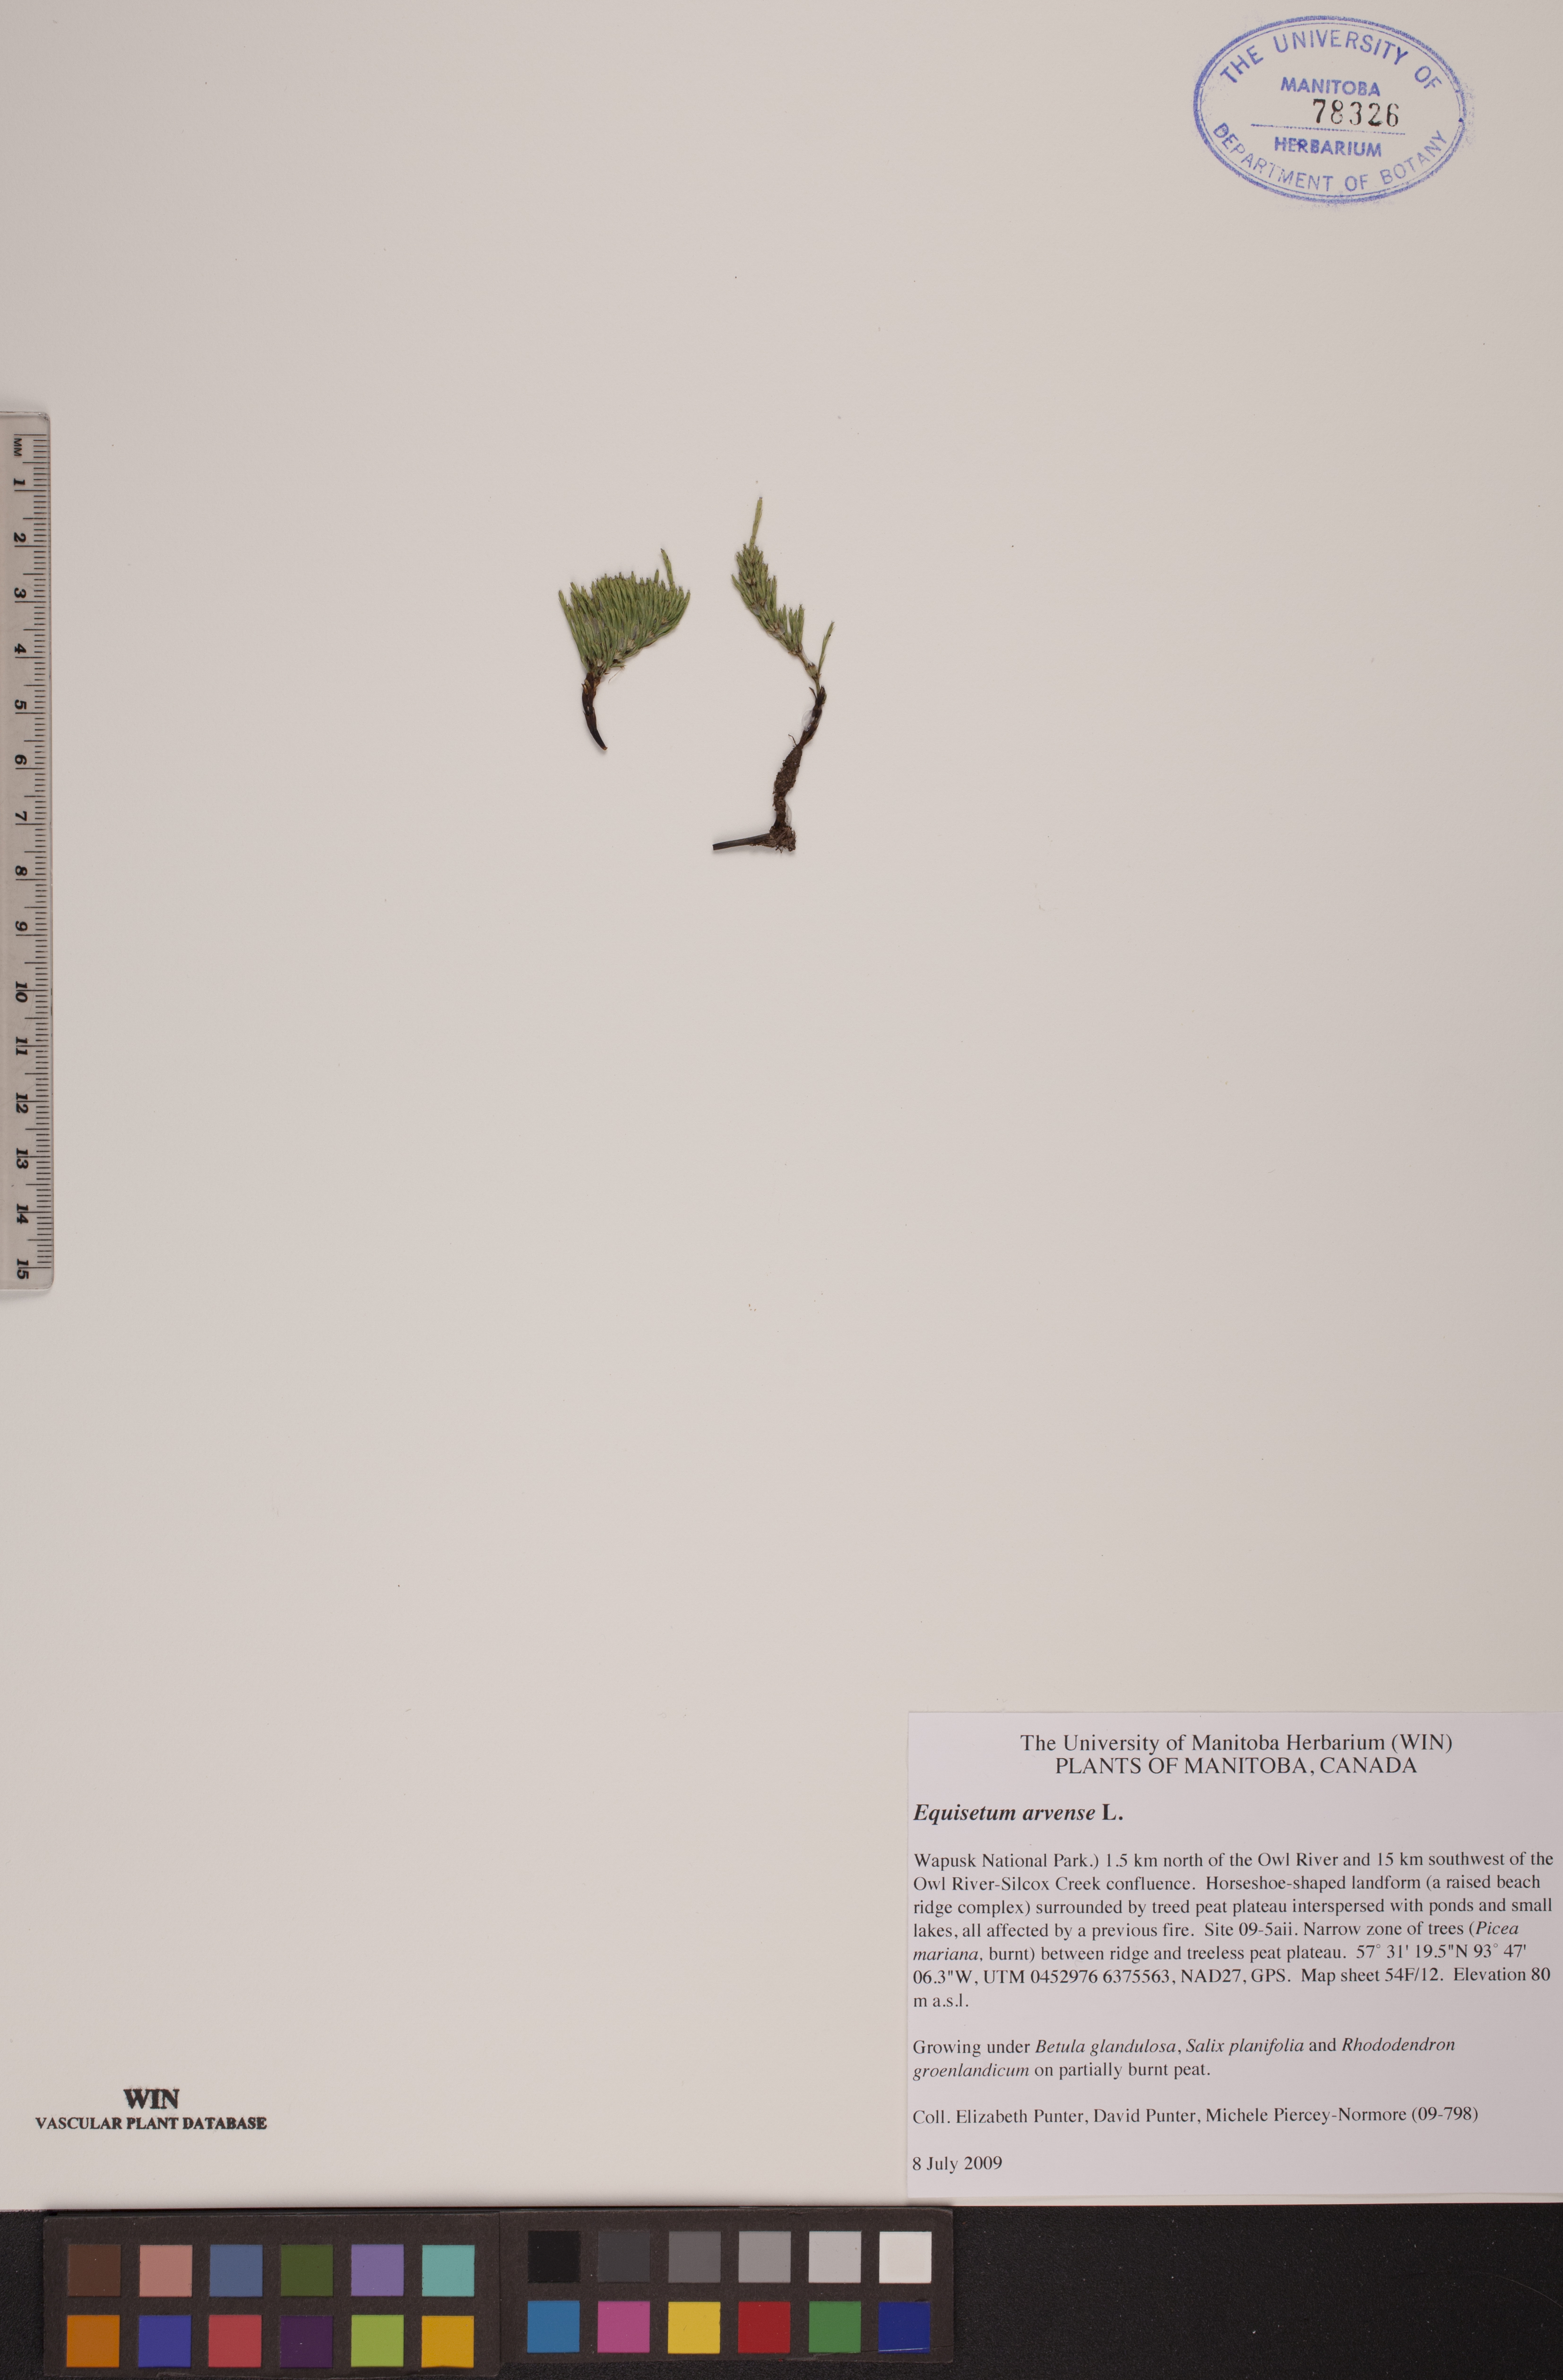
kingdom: Plantae
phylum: Tracheophyta
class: Polypodiopsida
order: Equisetales
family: Equisetaceae
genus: Equisetum
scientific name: Equisetum arvense
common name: Field horsetail
